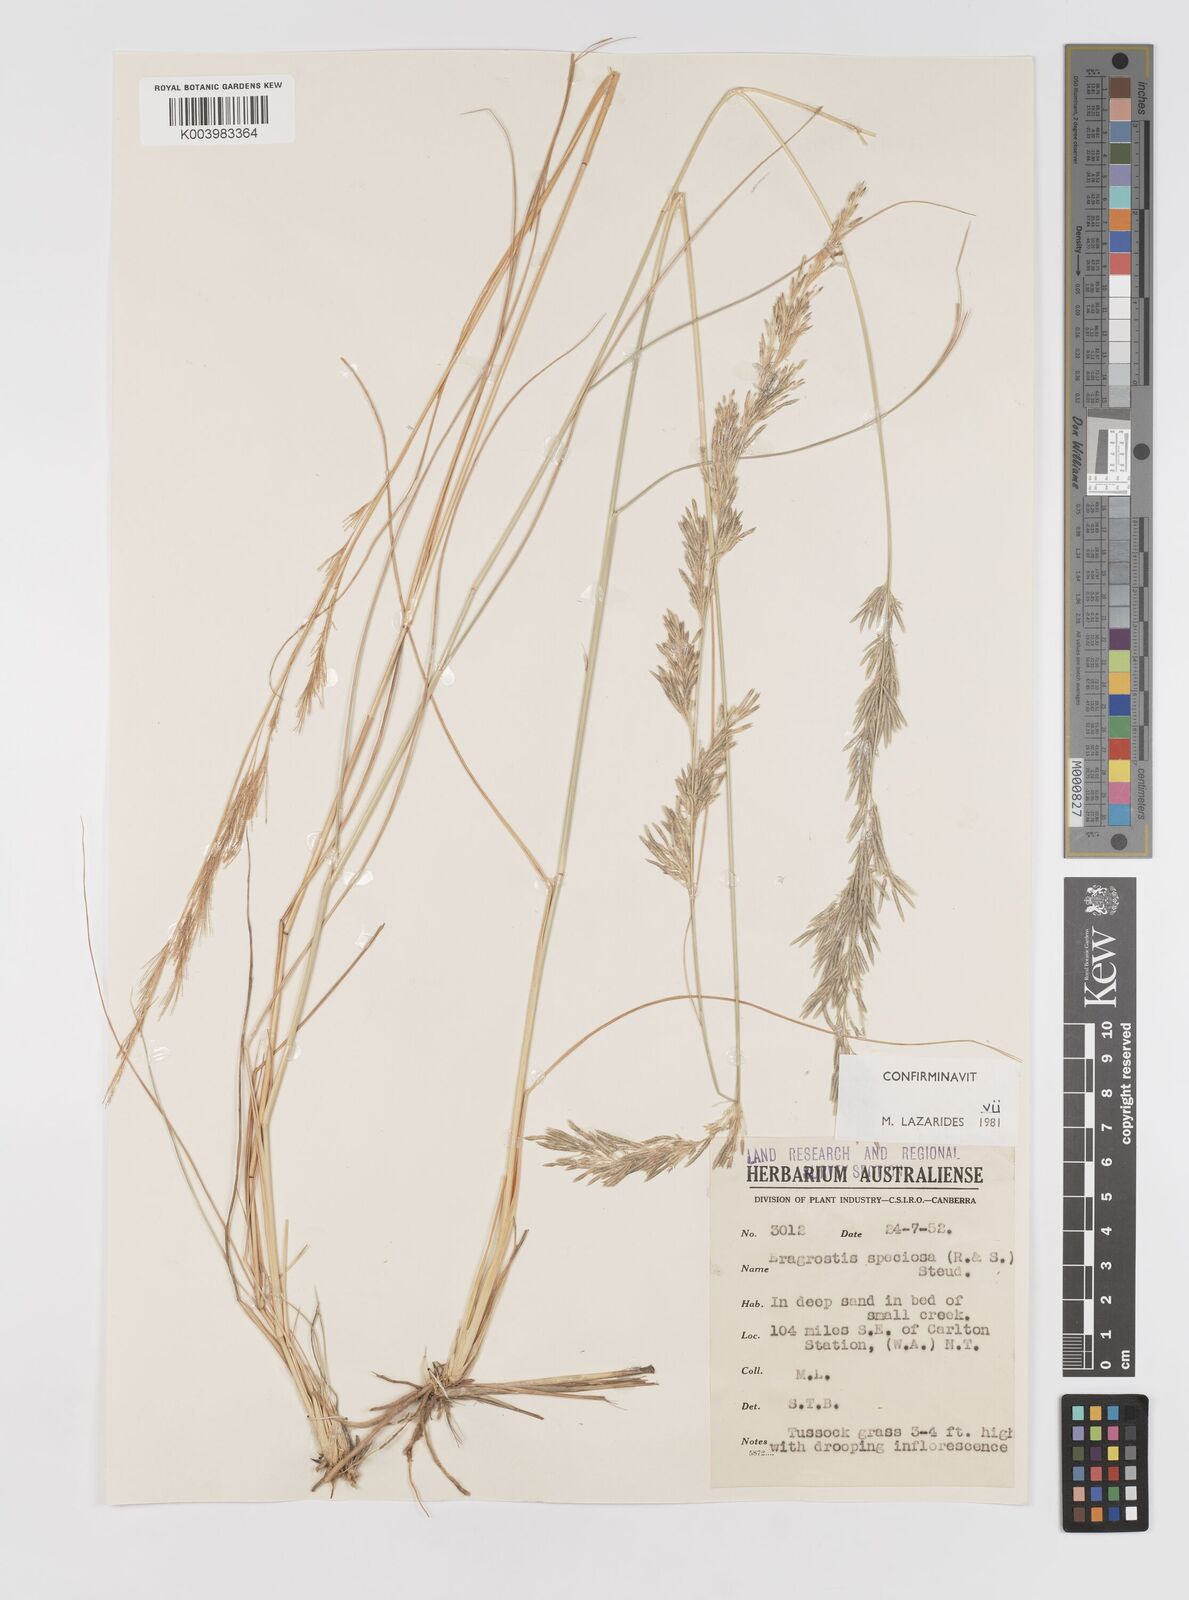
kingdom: Plantae
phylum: Tracheophyta
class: Liliopsida
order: Poales
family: Poaceae
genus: Eragrostis
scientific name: Eragrostis speciosa
